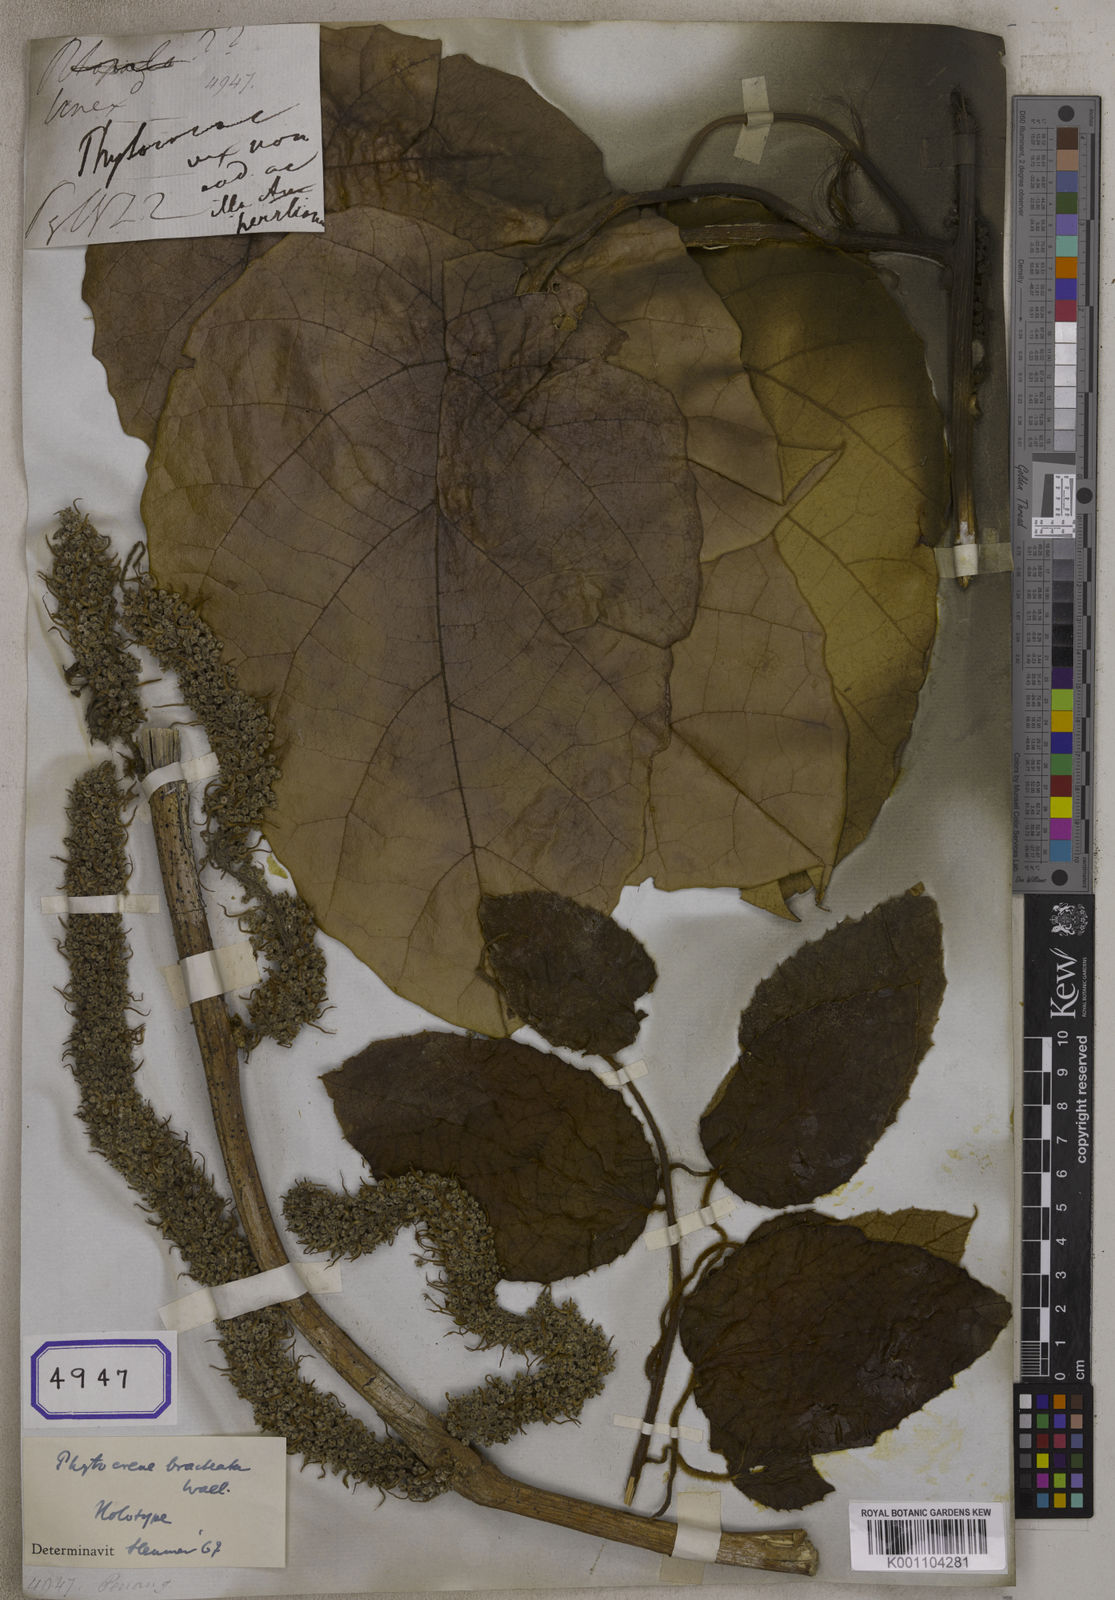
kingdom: Plantae
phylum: Tracheophyta
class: Magnoliopsida
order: Icacinales
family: Icacinaceae
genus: Phytocrene
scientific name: Phytocrene bracteata
